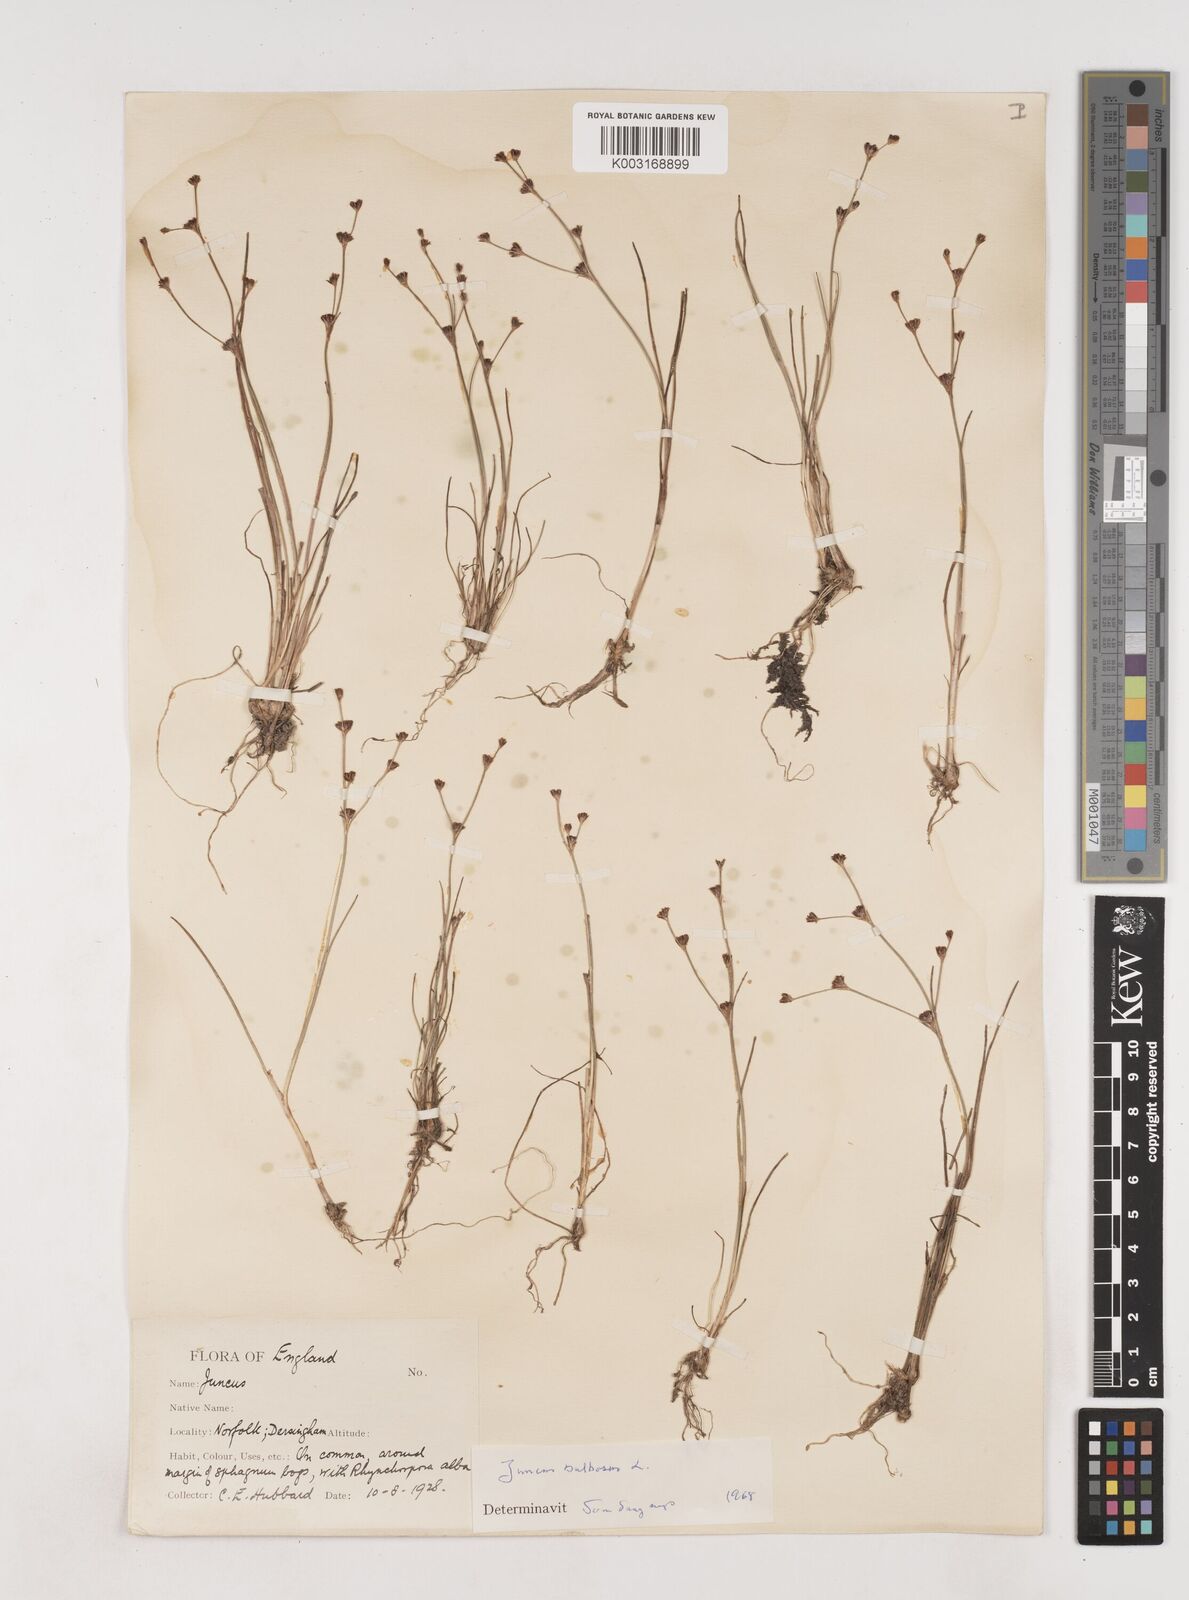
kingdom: Plantae
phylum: Tracheophyta
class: Liliopsida
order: Poales
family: Juncaceae
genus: Juncus
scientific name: Juncus bulbosus
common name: Bulbous rush
